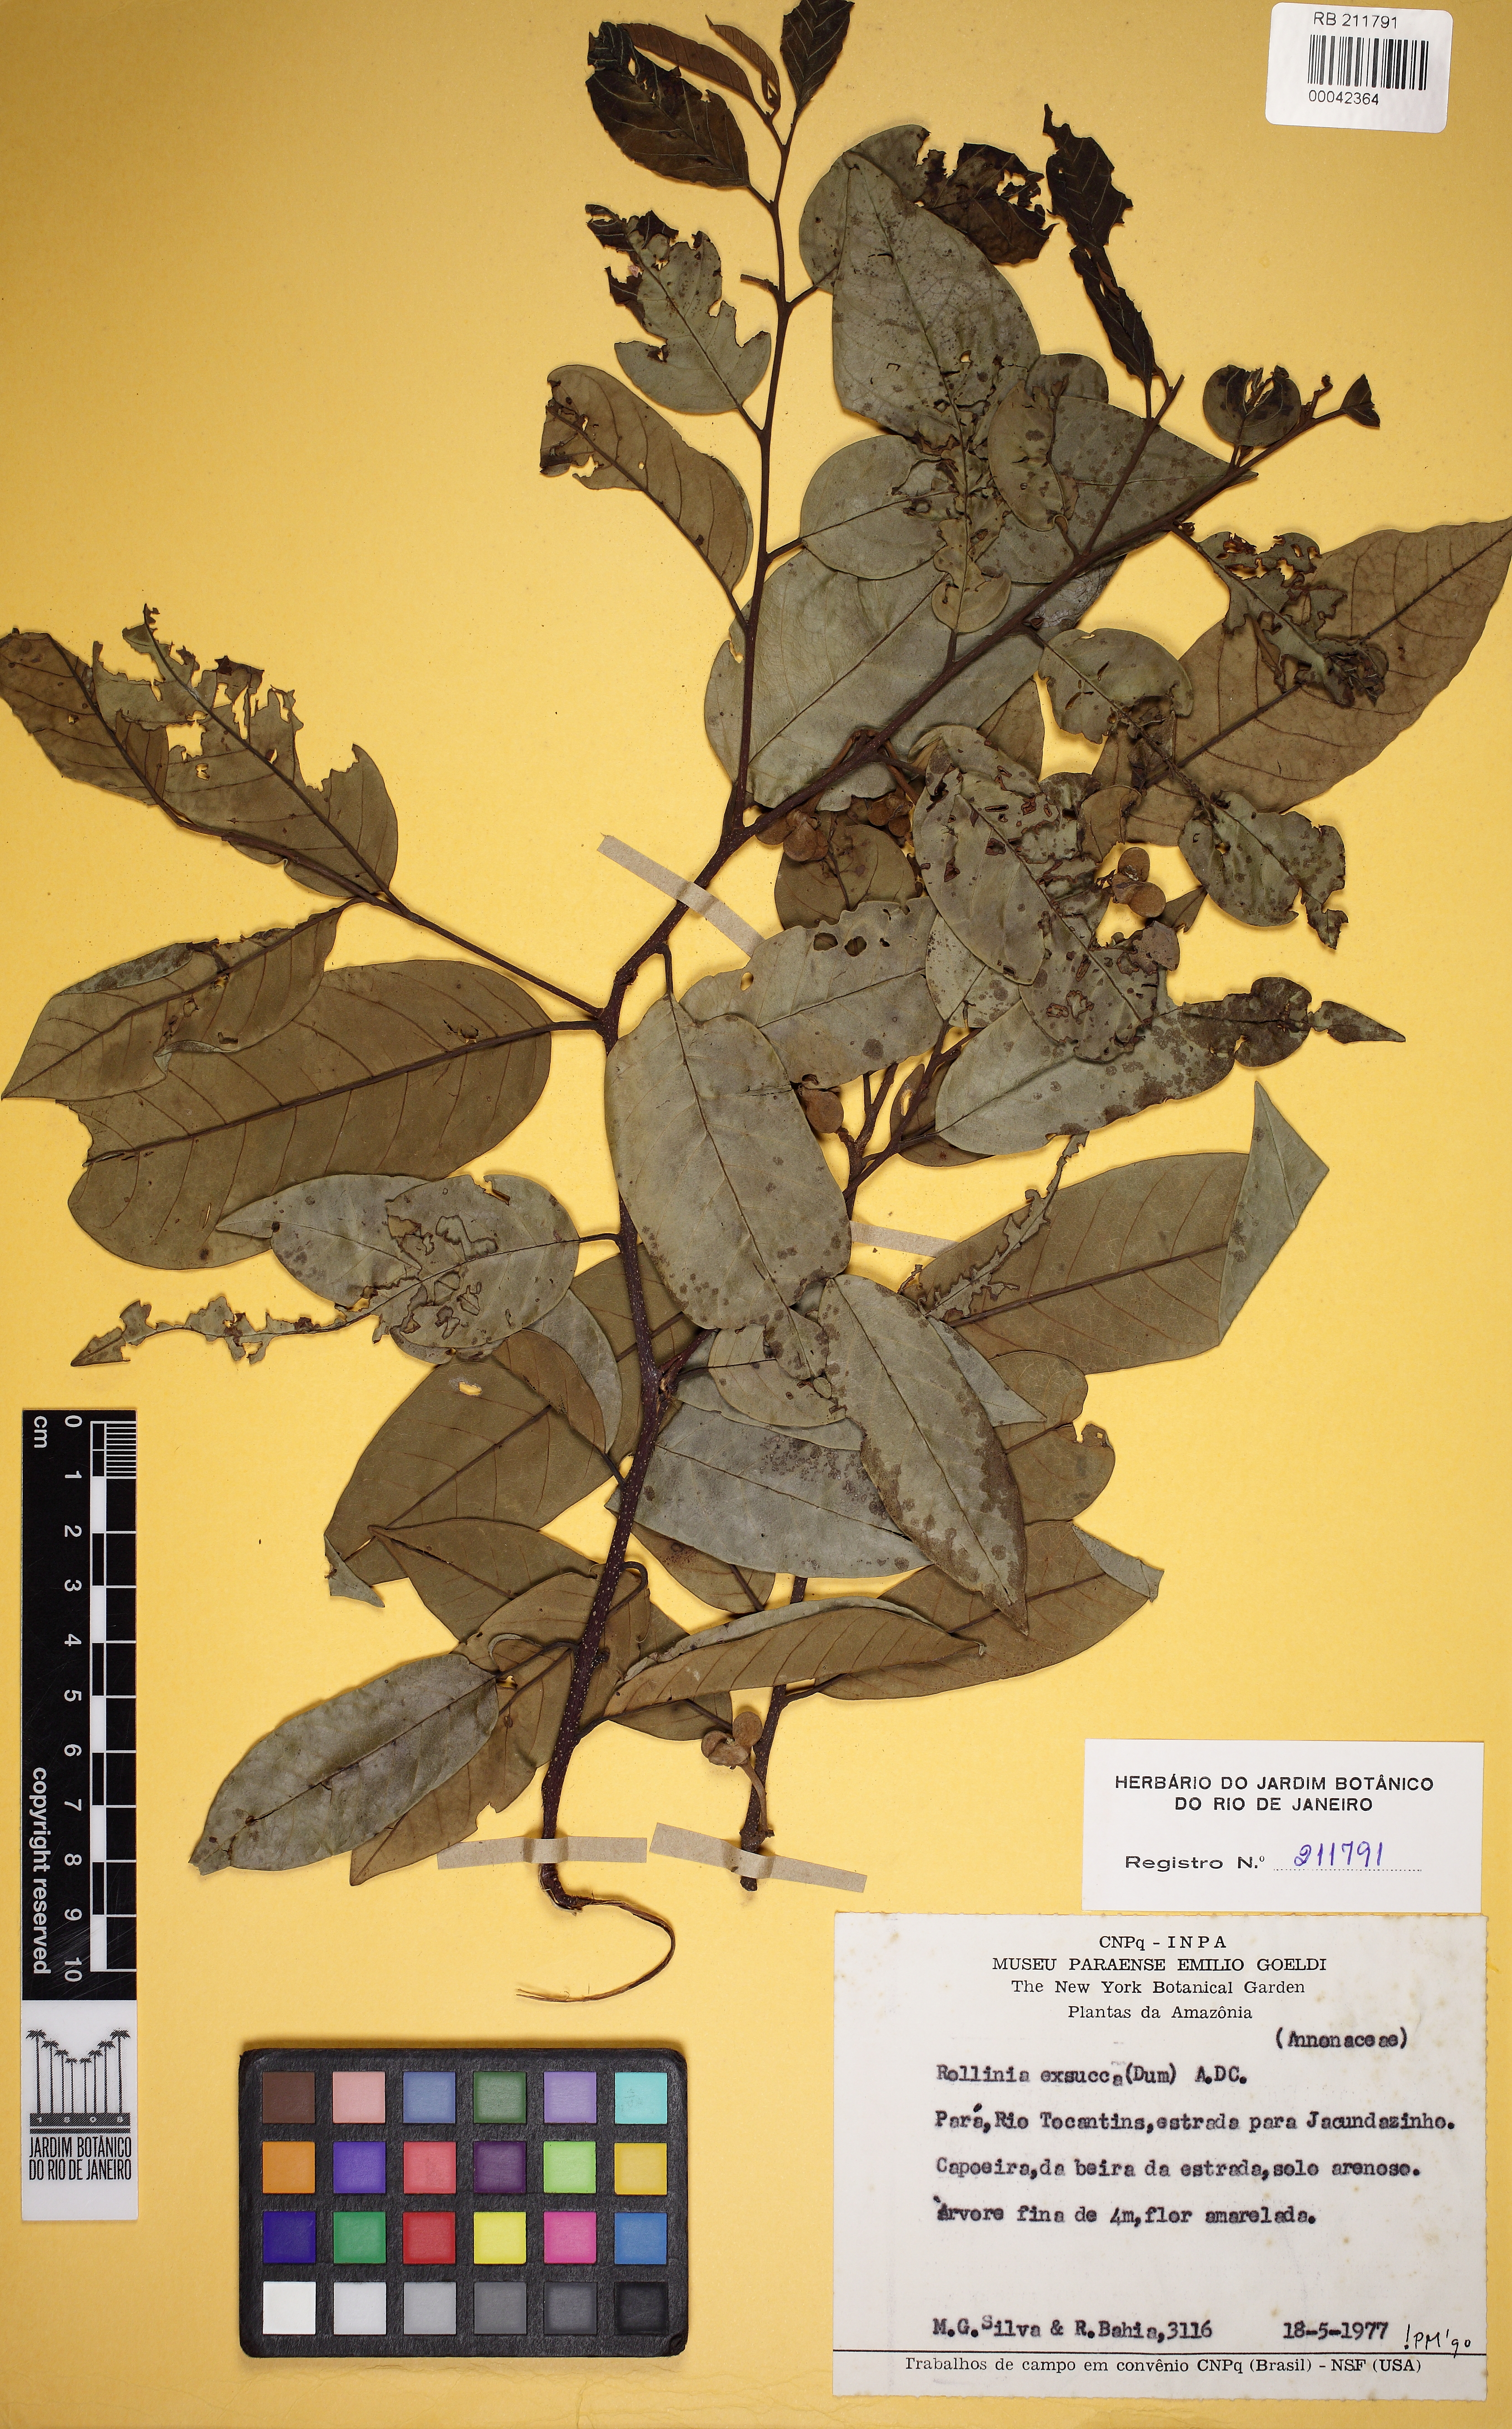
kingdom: Plantae
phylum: Tracheophyta
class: Magnoliopsida
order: Magnoliales
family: Annonaceae
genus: Annona
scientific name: Annona emarginata
